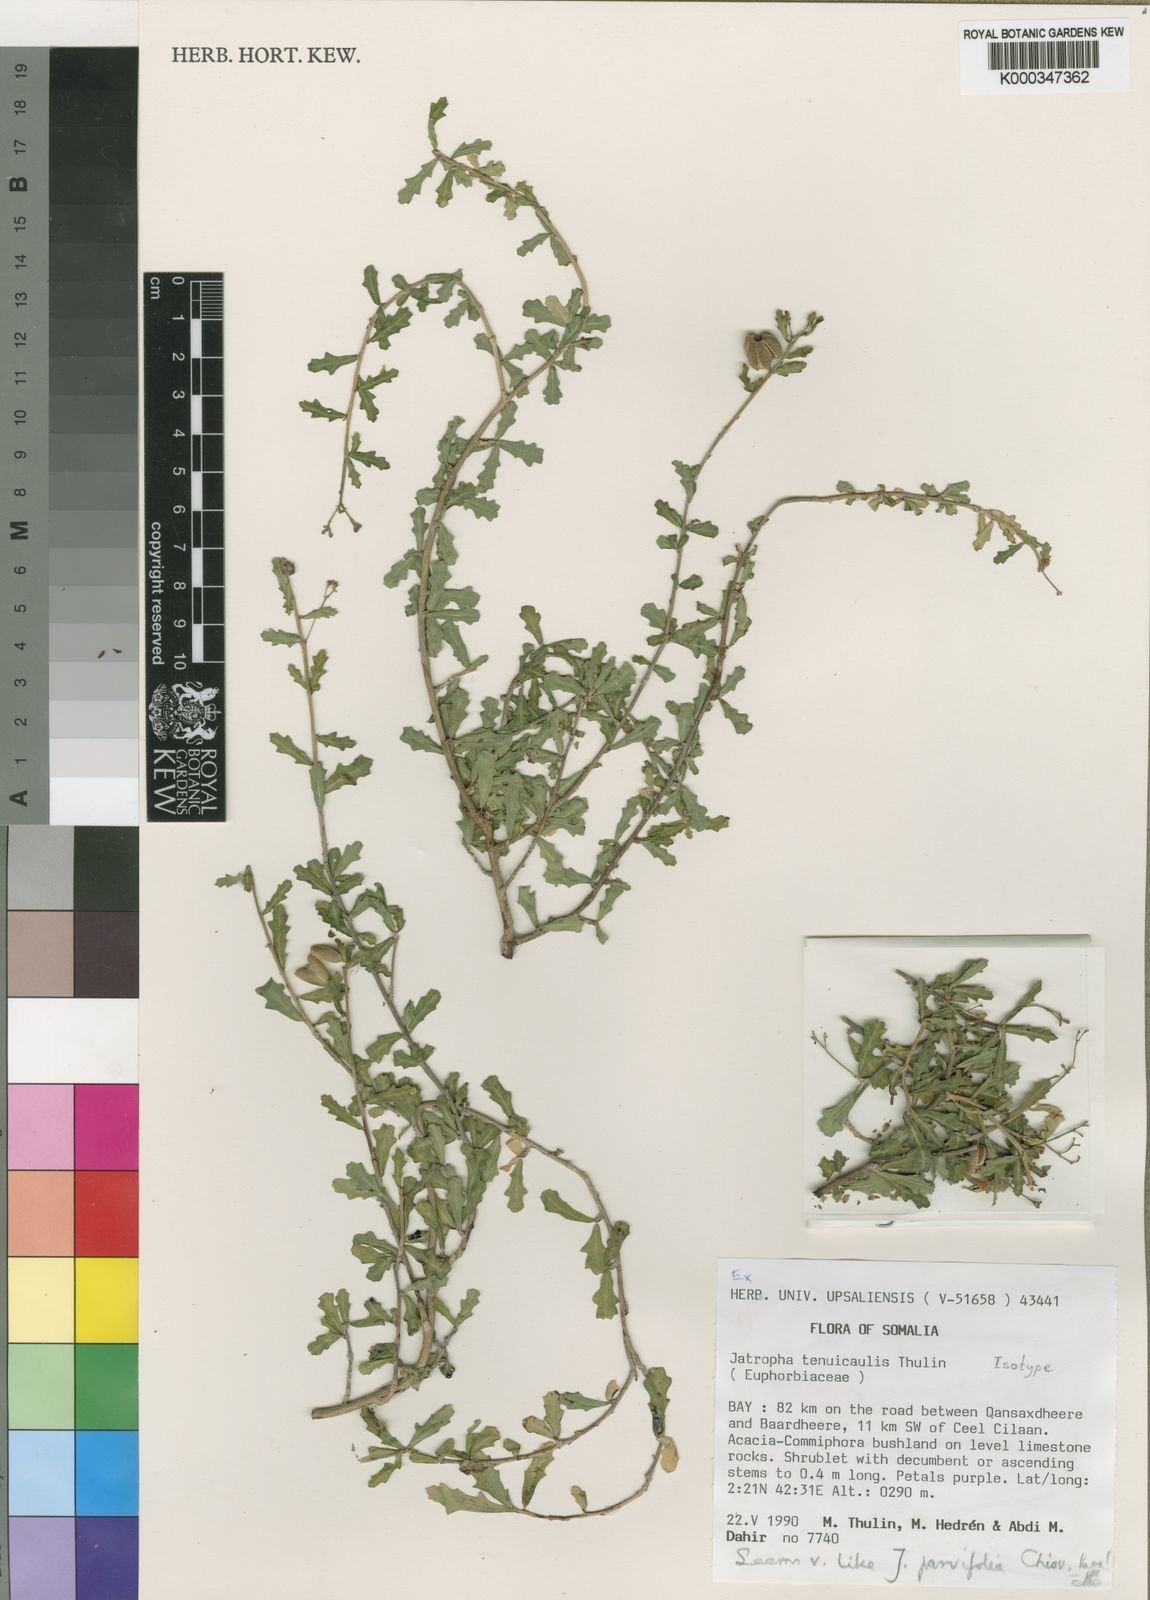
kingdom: Plantae
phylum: Tracheophyta
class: Magnoliopsida
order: Malpighiales
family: Euphorbiaceae
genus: Jatropha
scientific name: Jatropha tenuicaulis
